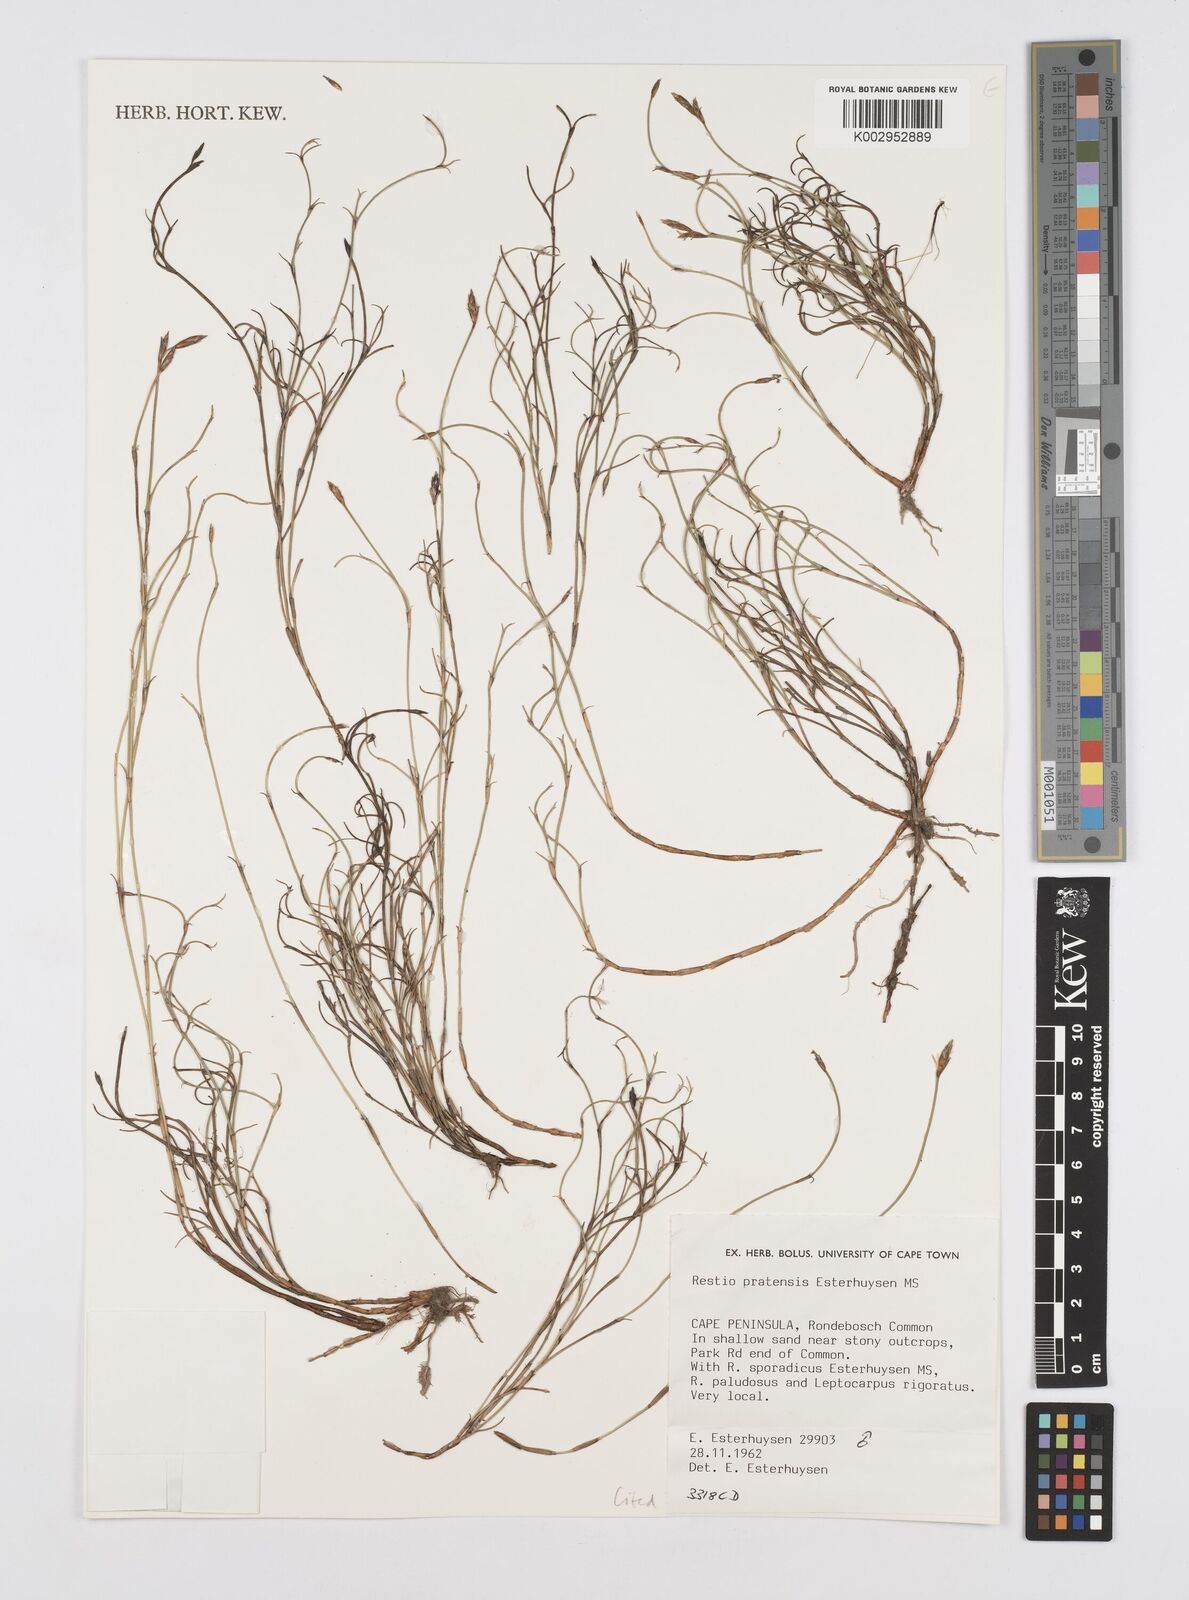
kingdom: Plantae
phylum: Tracheophyta
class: Liliopsida
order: Poales
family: Restionaceae
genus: Restio
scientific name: Restio pratensis
